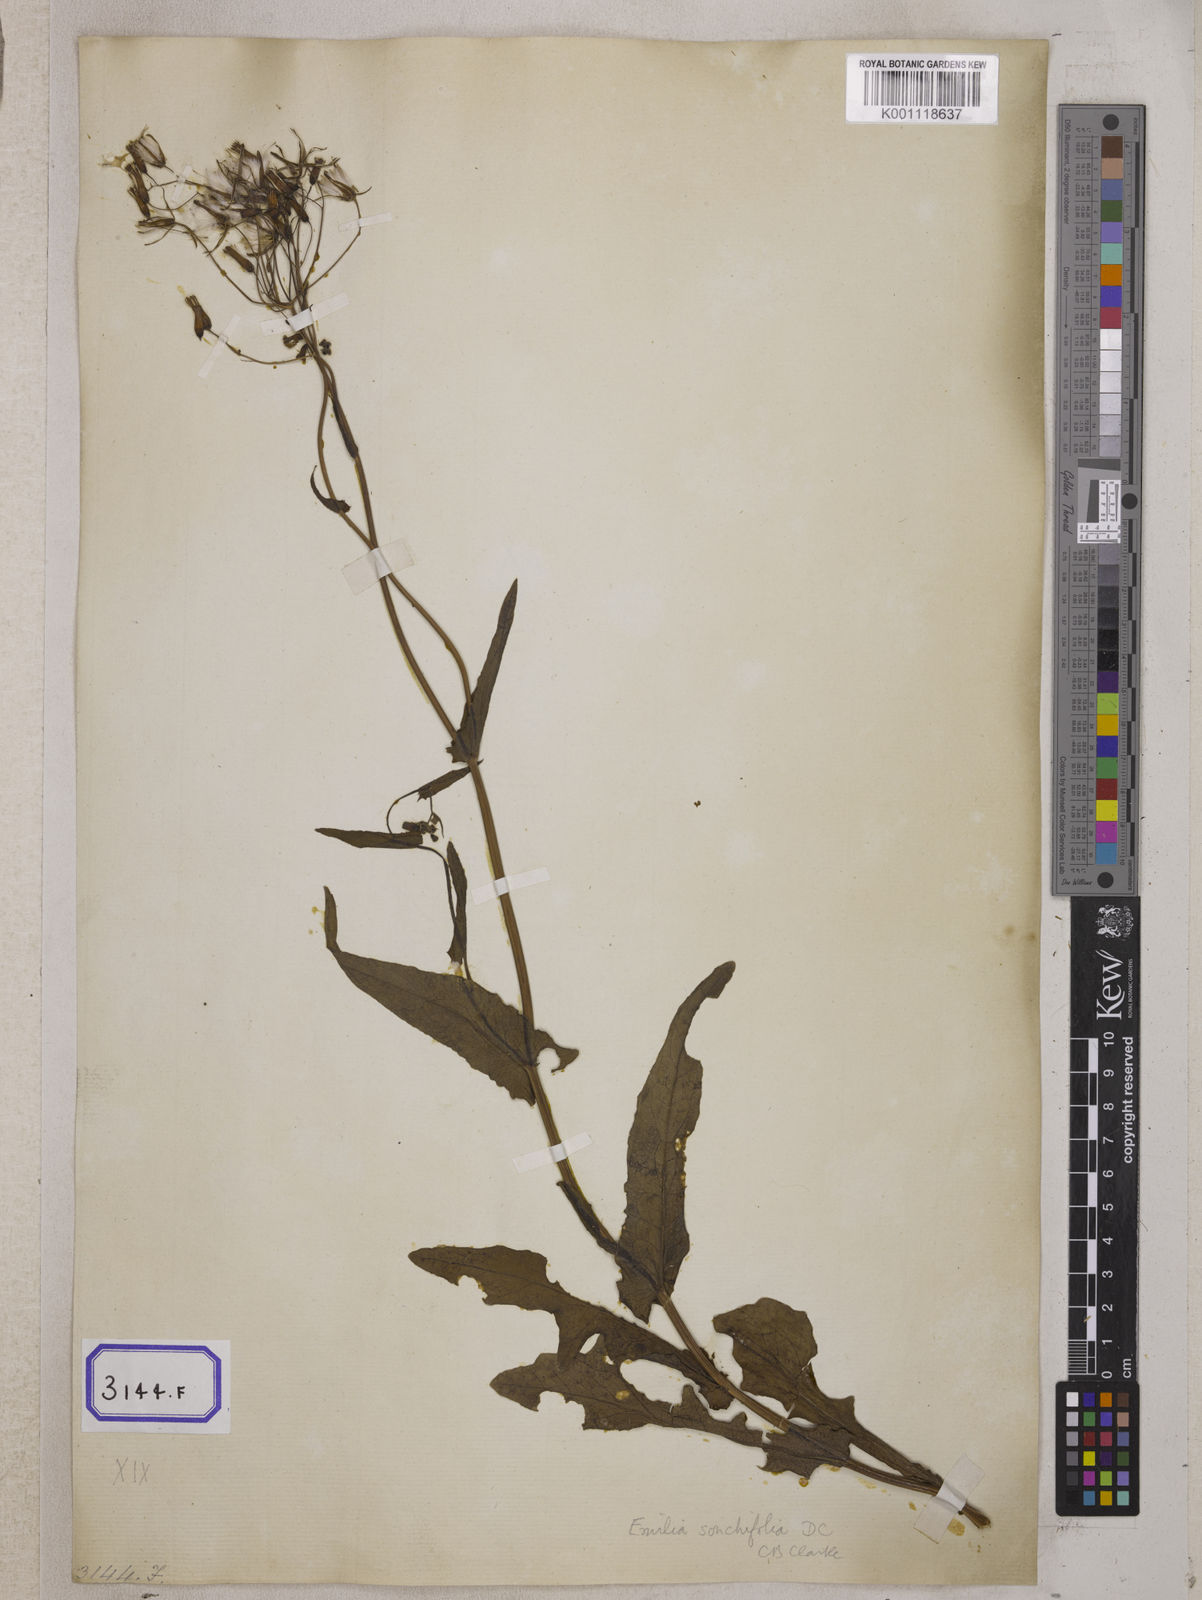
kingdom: Plantae
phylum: Tracheophyta
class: Magnoliopsida
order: Asterales
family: Asteraceae
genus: Launaea
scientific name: Launaea remotiflora
